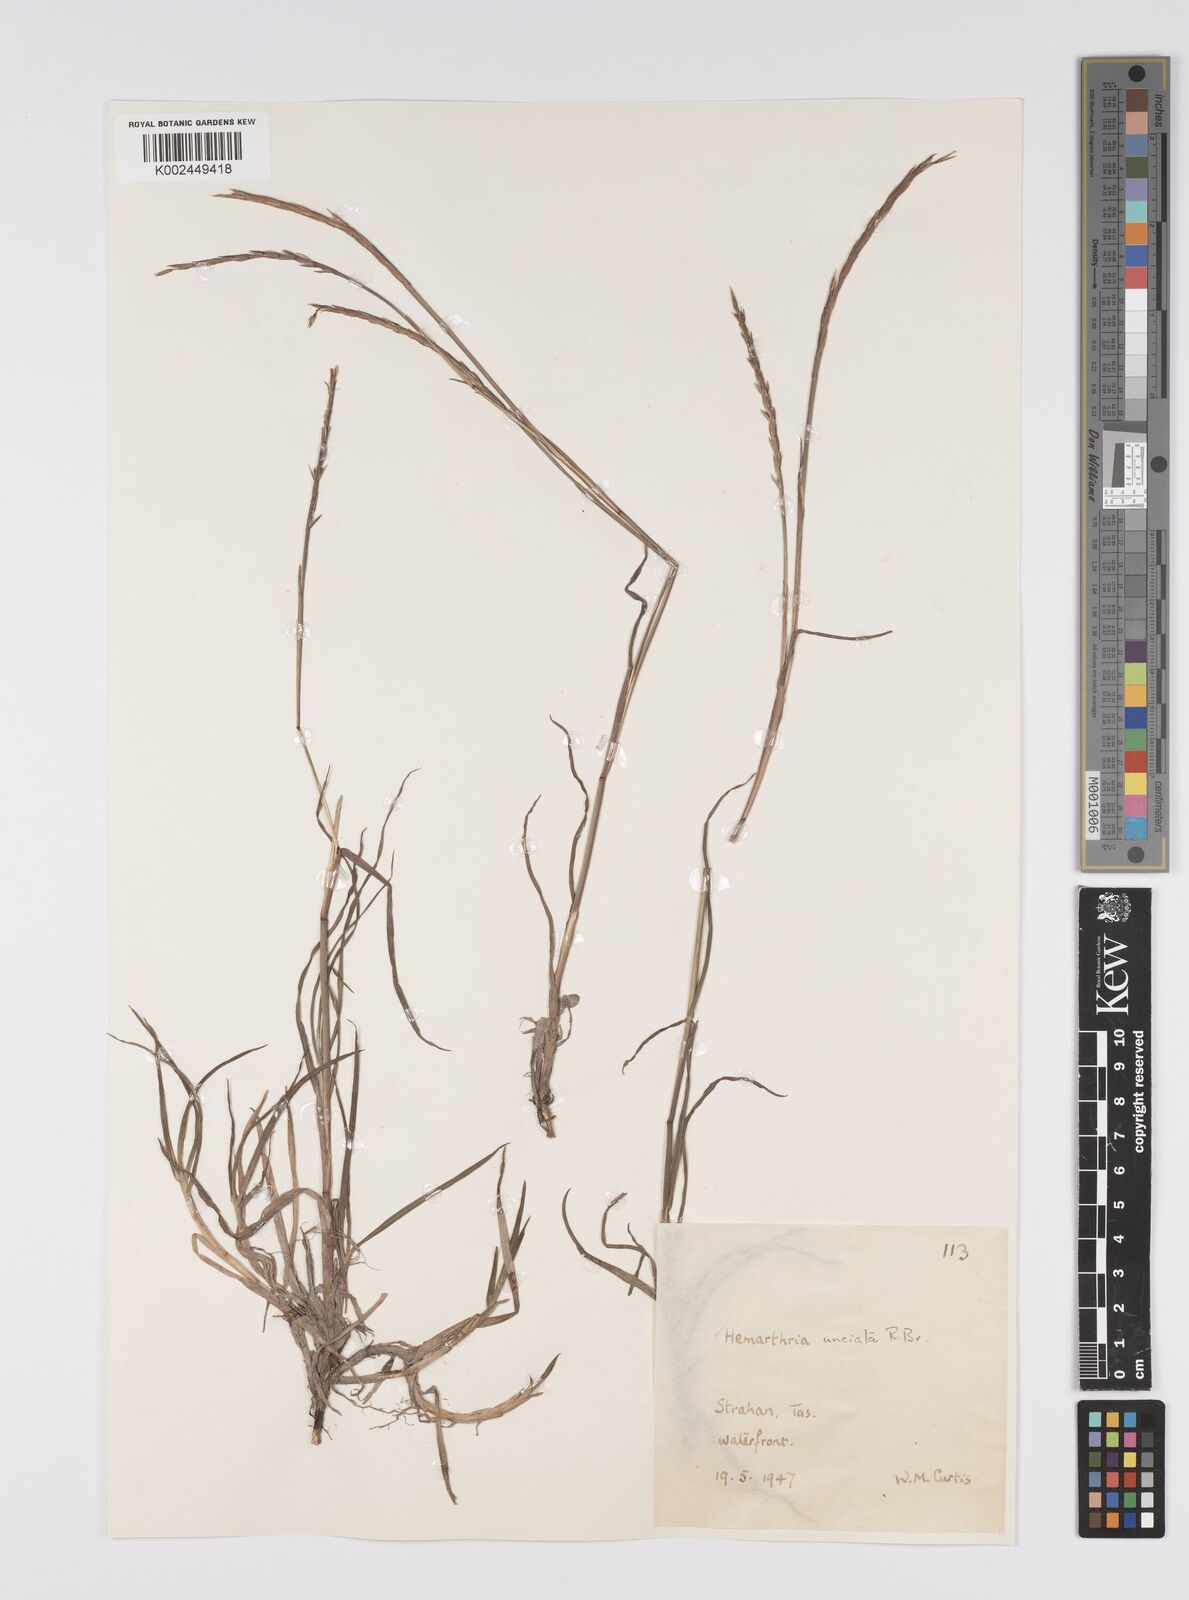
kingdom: Plantae
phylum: Tracheophyta
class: Liliopsida
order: Poales
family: Poaceae
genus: Hemarthria
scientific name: Hemarthria uncinata
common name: Matgrass
